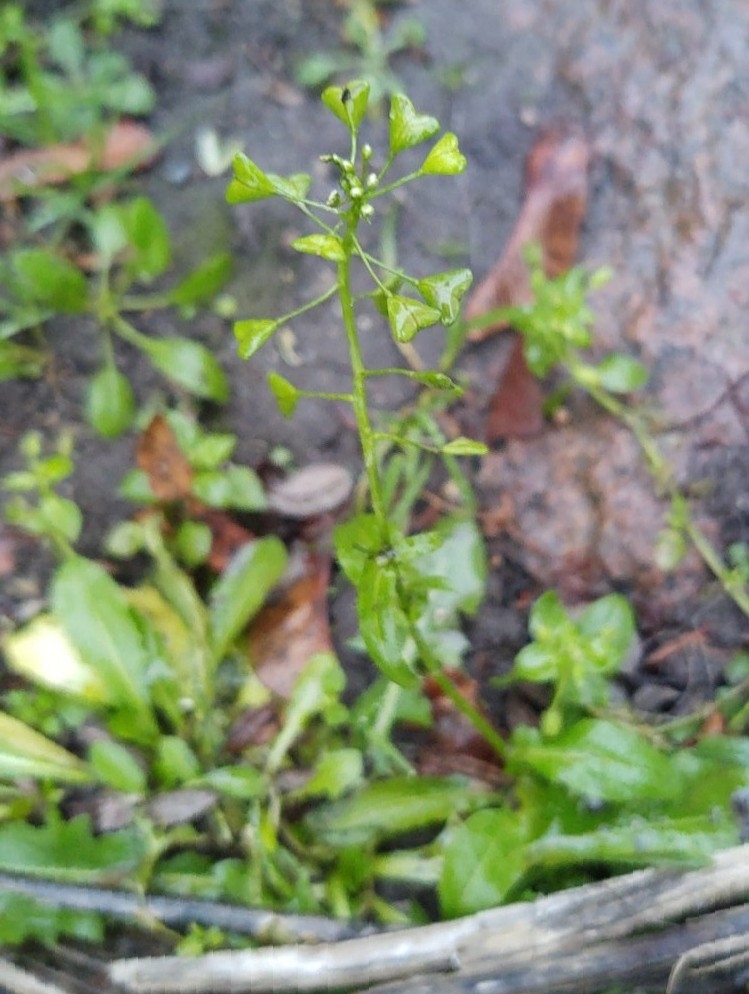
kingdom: Plantae
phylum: Tracheophyta
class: Magnoliopsida
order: Brassicales
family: Brassicaceae
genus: Capsella
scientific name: Capsella bursa-pastoris
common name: Hyrdetaske
